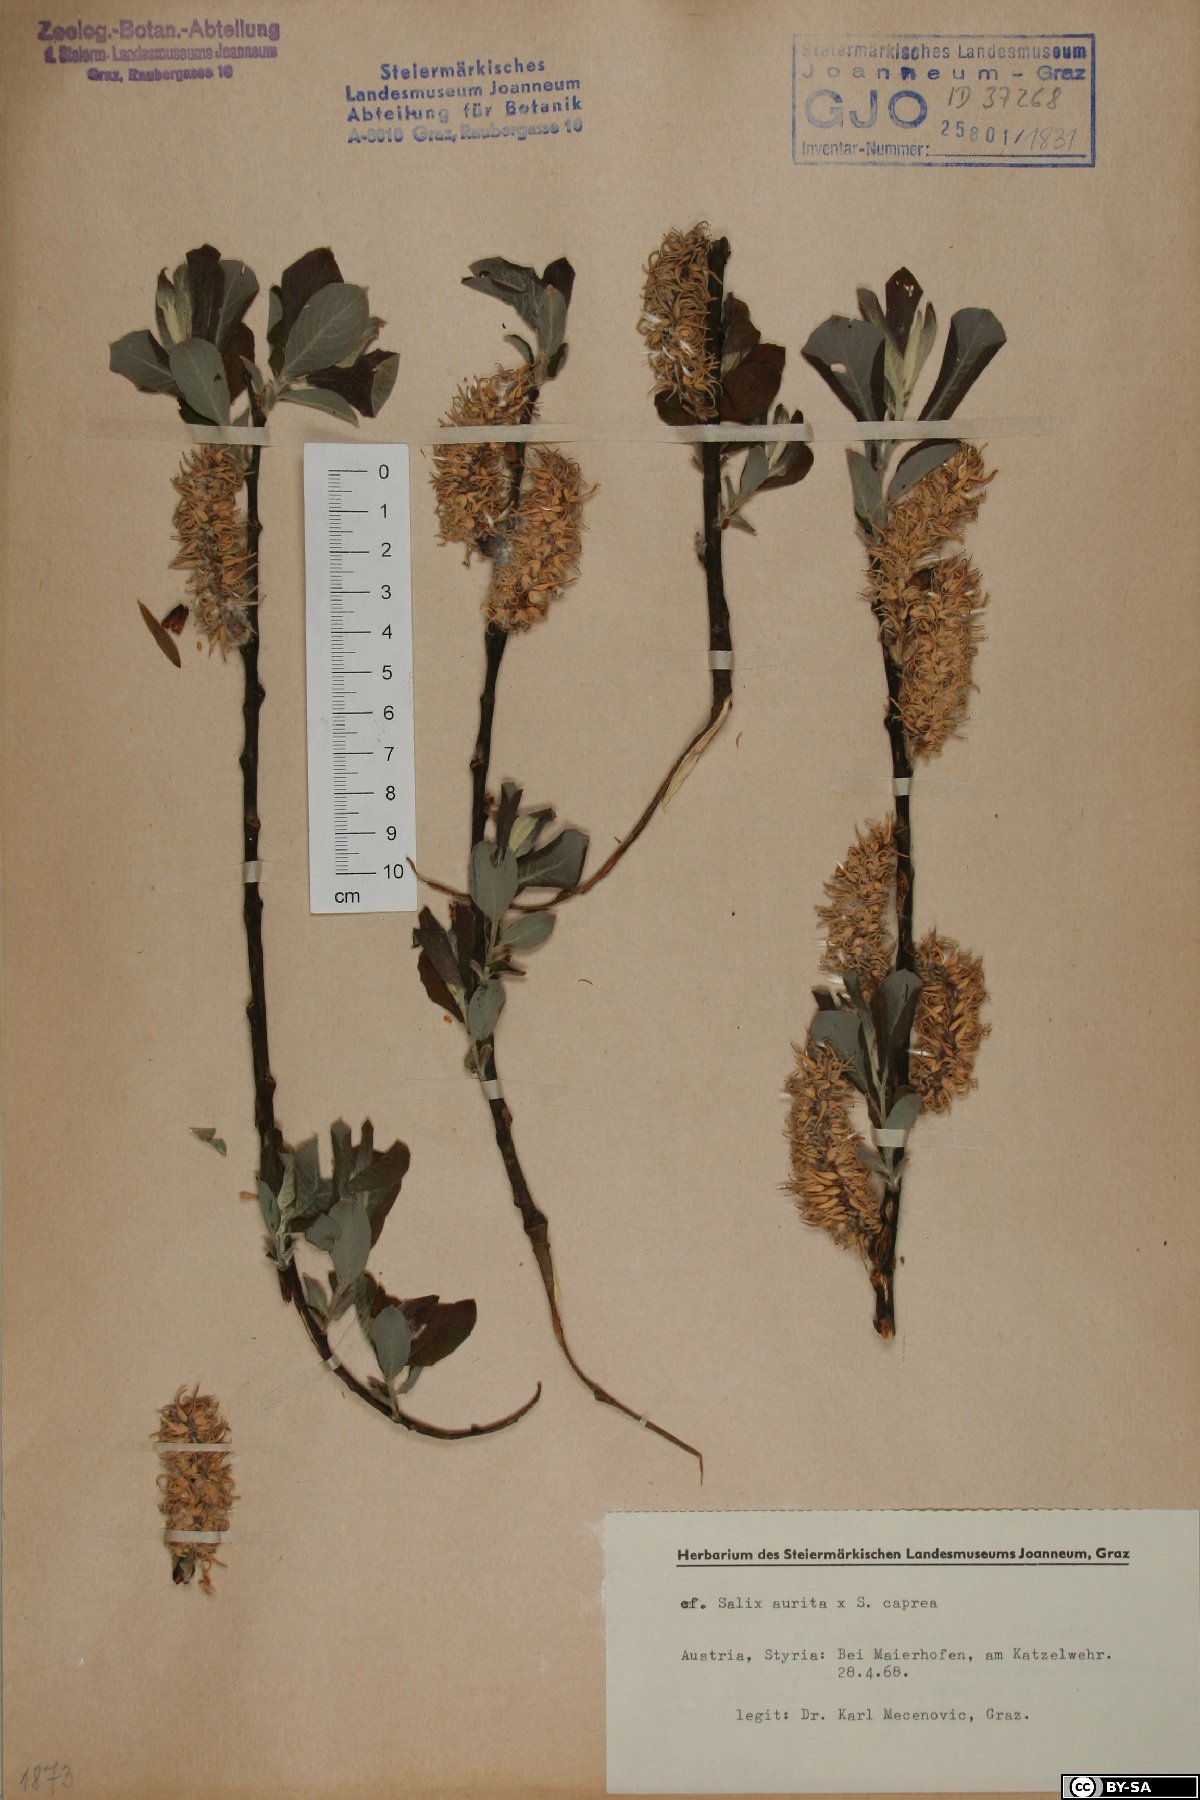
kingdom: Plantae
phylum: Tracheophyta
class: Magnoliopsida
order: Malpighiales
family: Salicaceae
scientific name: Salicaceae
